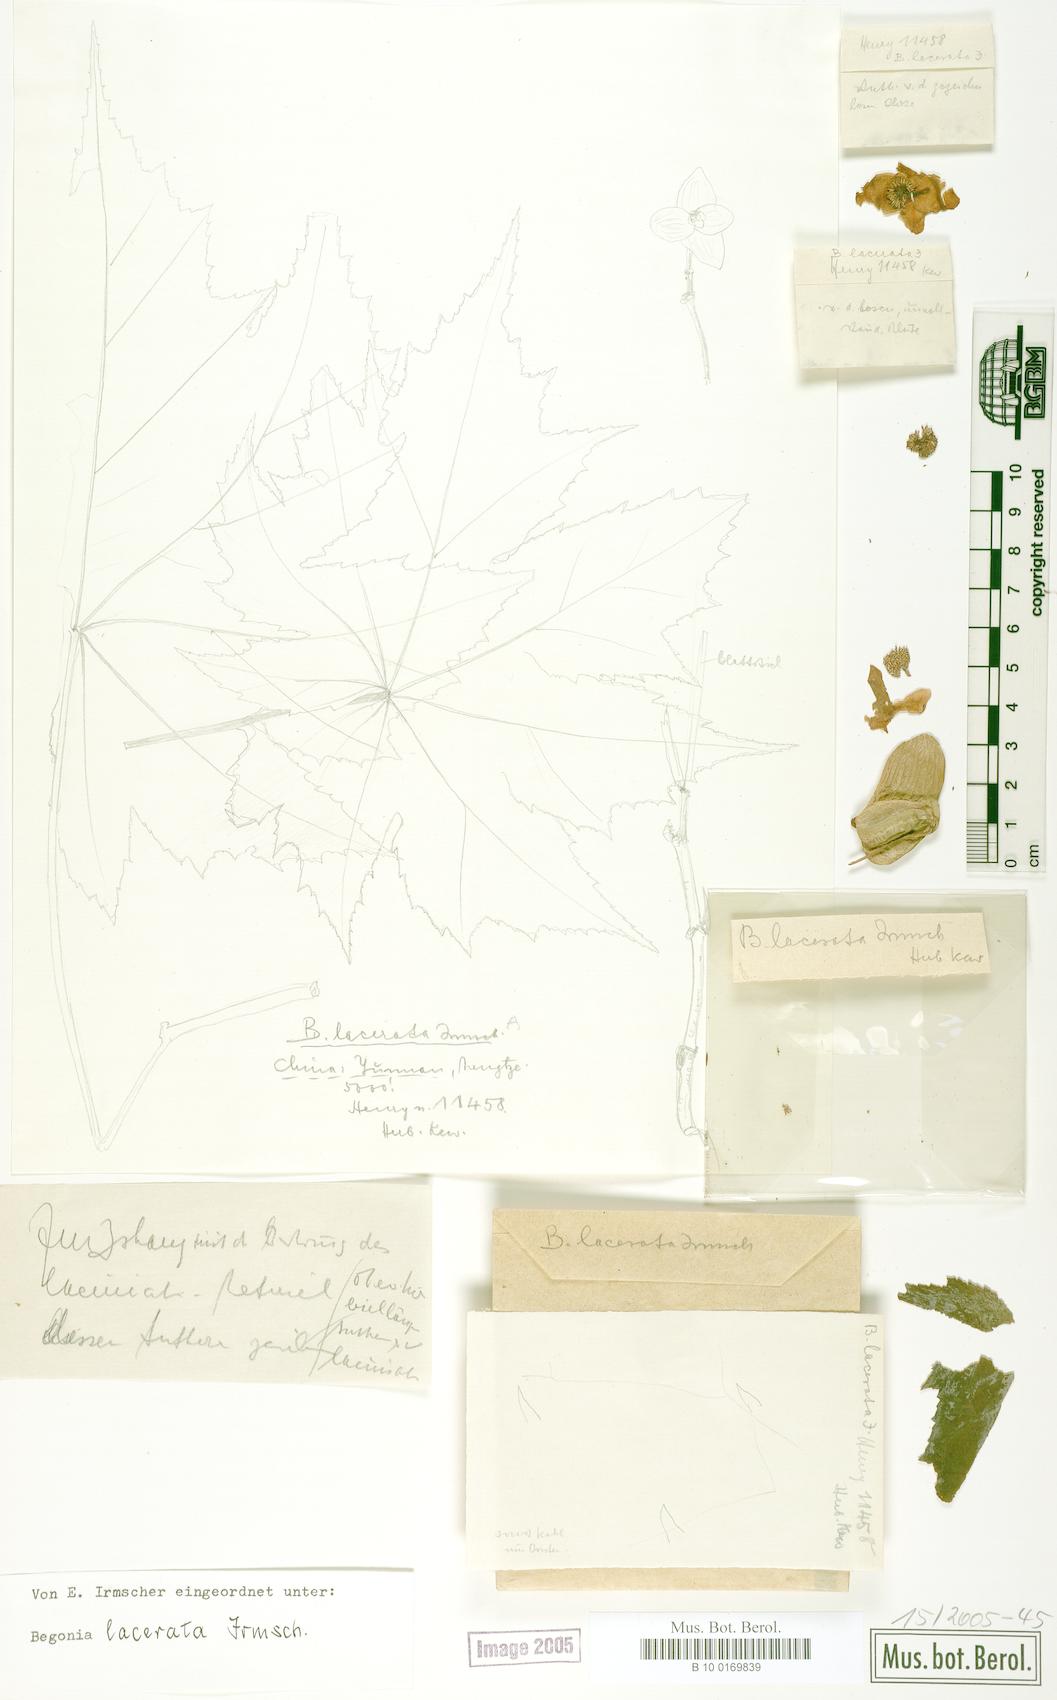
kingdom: Plantae
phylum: Tracheophyta
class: Magnoliopsida
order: Cucurbitales
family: Begoniaceae
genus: Begonia
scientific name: Begonia lacerata
